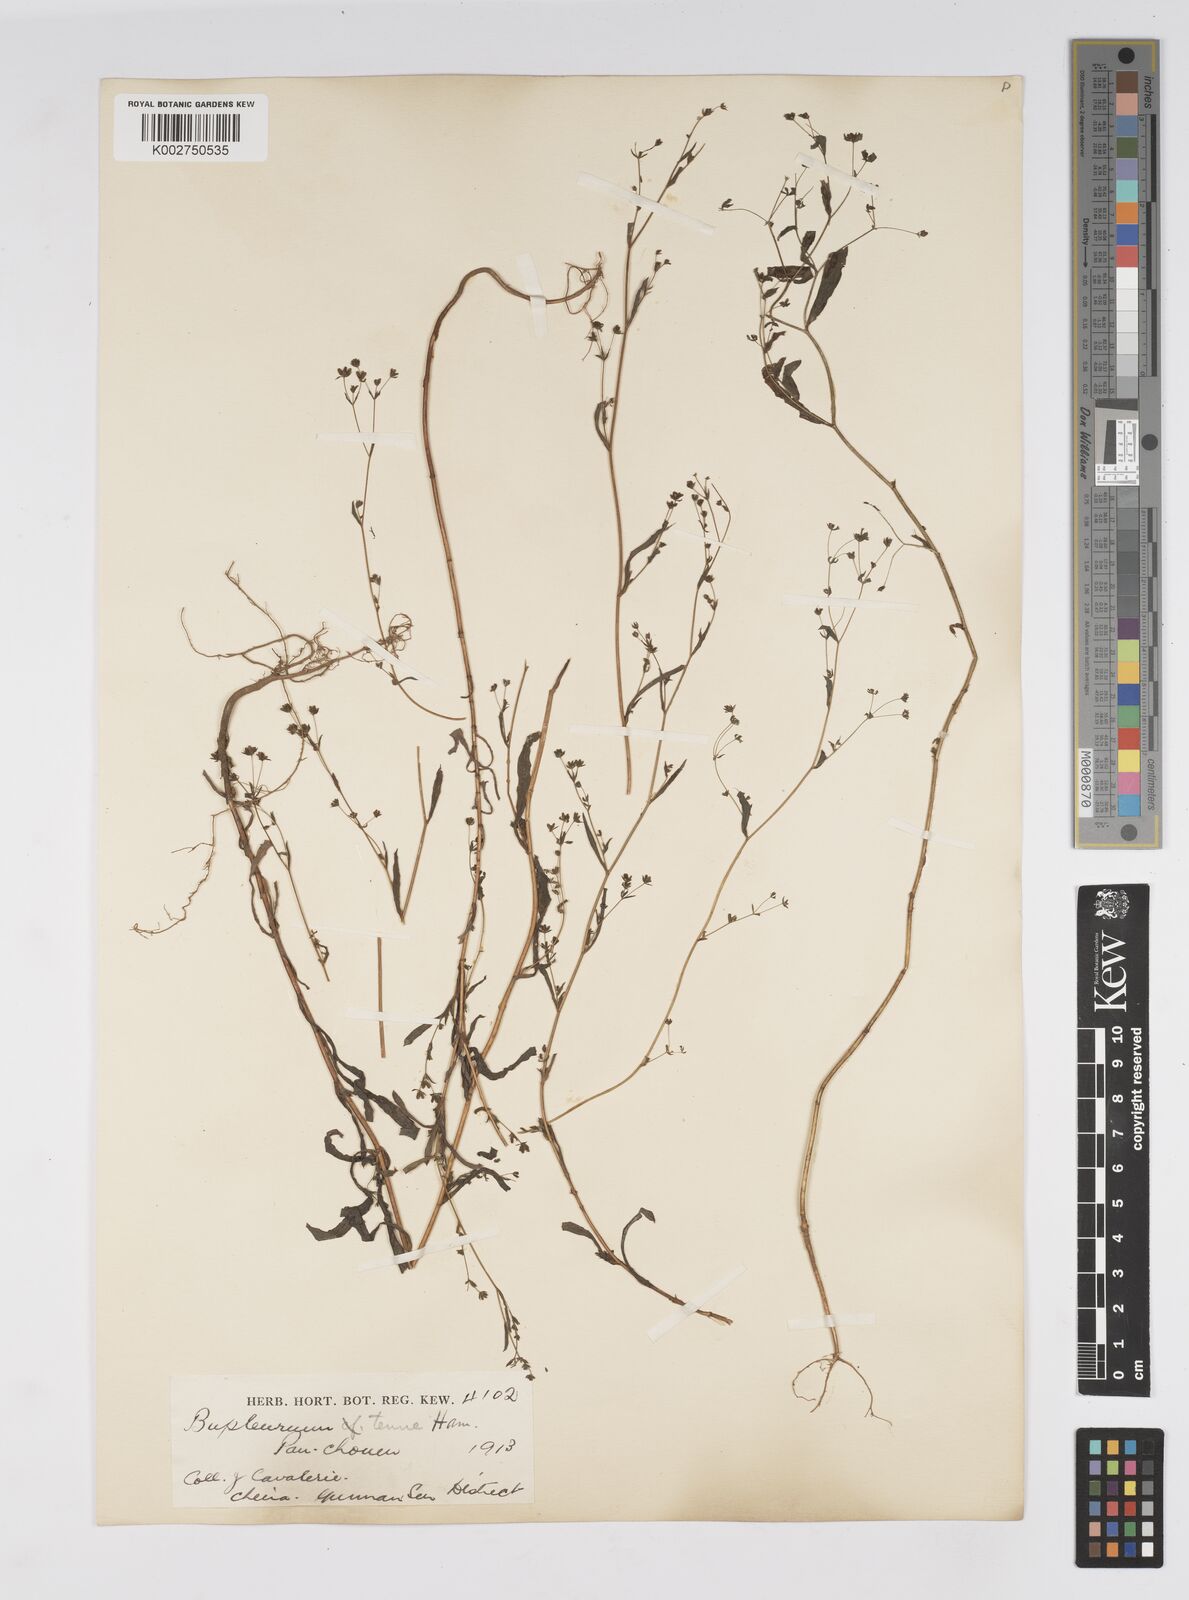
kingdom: Plantae
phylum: Tracheophyta
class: Magnoliopsida
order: Apiales
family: Apiaceae
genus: Bupleurum
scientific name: Bupleurum hamiltonii
